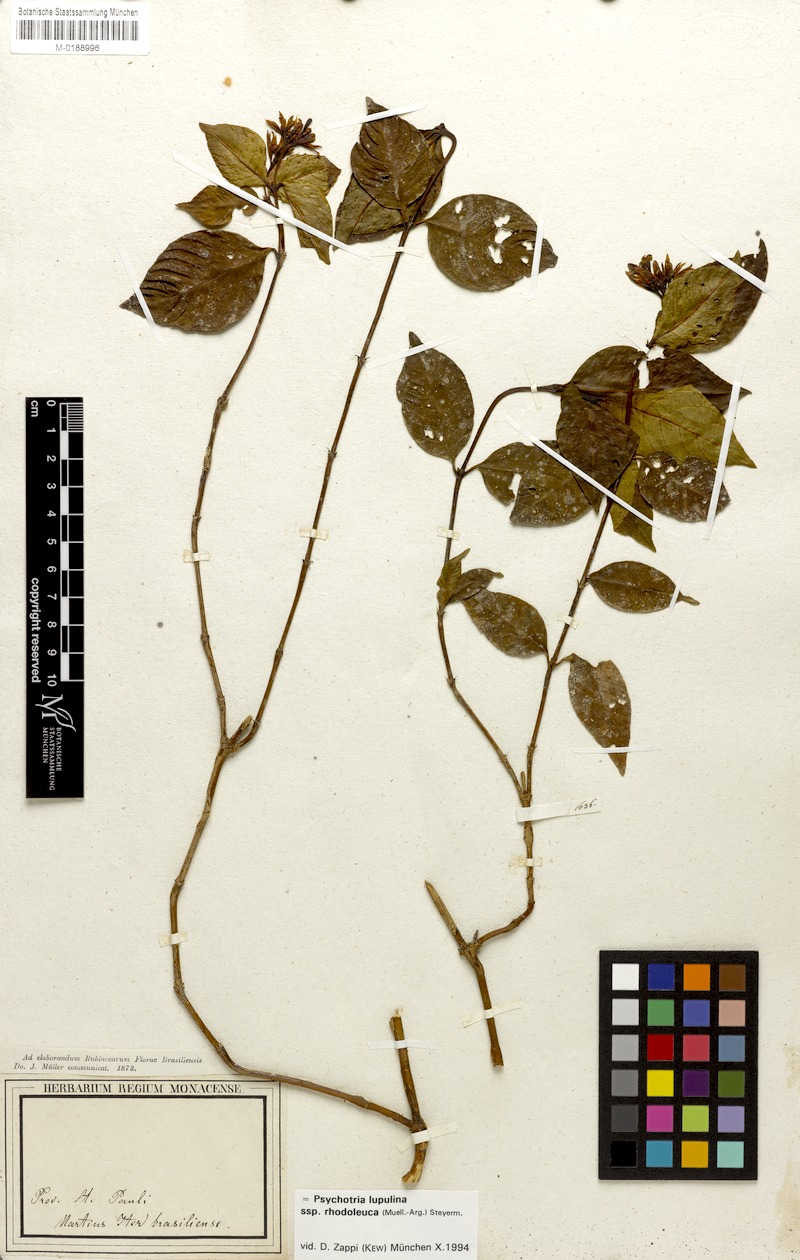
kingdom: Plantae
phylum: Tracheophyta
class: Magnoliopsida
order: Gentianales
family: Rubiaceae
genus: Palicourea
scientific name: Palicourea justiciifolia
